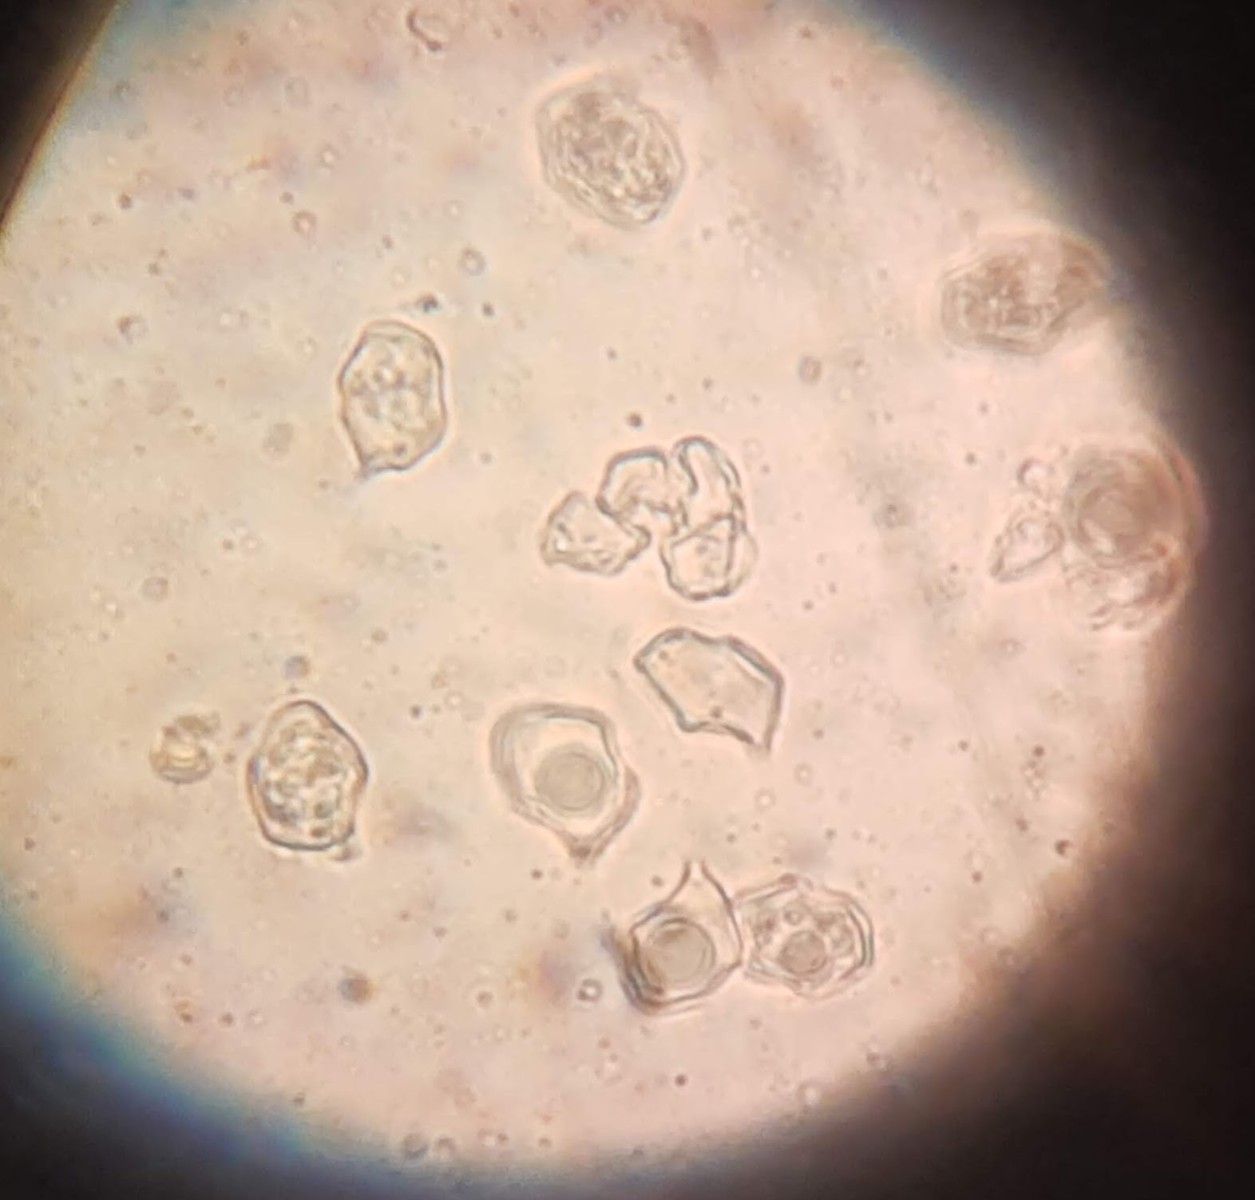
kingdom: Fungi
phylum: Basidiomycota
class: Agaricomycetes
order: Agaricales
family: Entolomataceae
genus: Entoloma
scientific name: Entoloma
